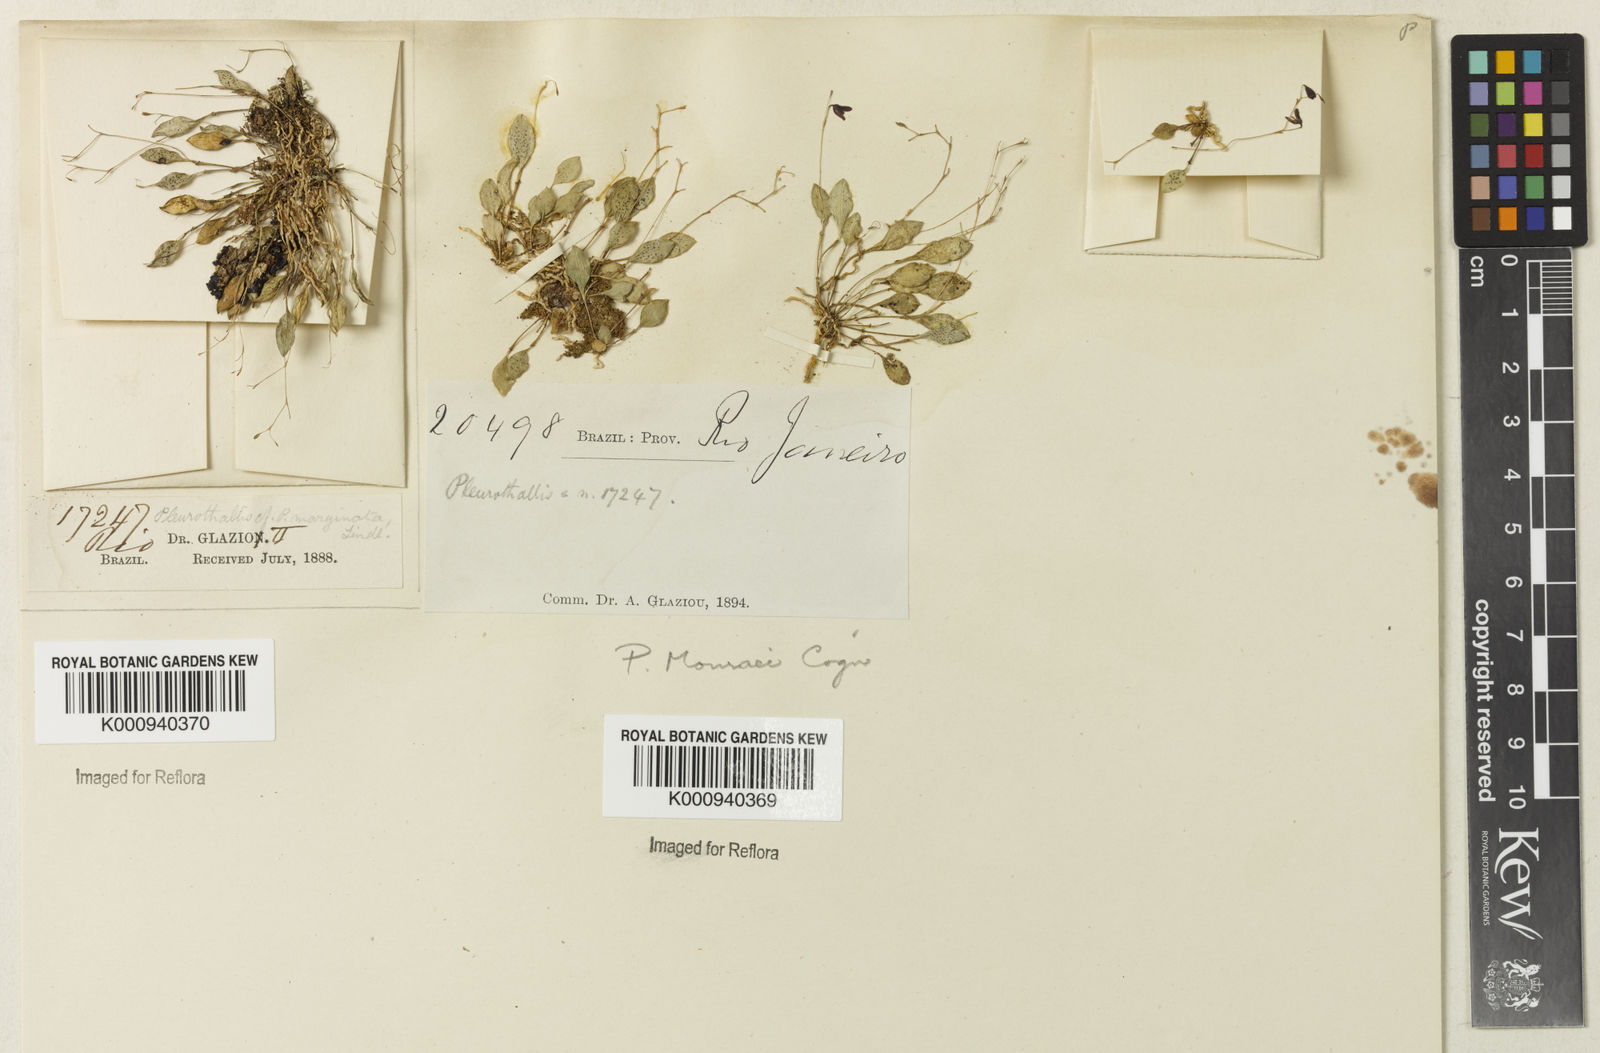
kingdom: Plantae
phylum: Tracheophyta
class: Liliopsida
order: Asparagales
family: Orchidaceae
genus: Pabstiella
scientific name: Pabstiella quadridentata
